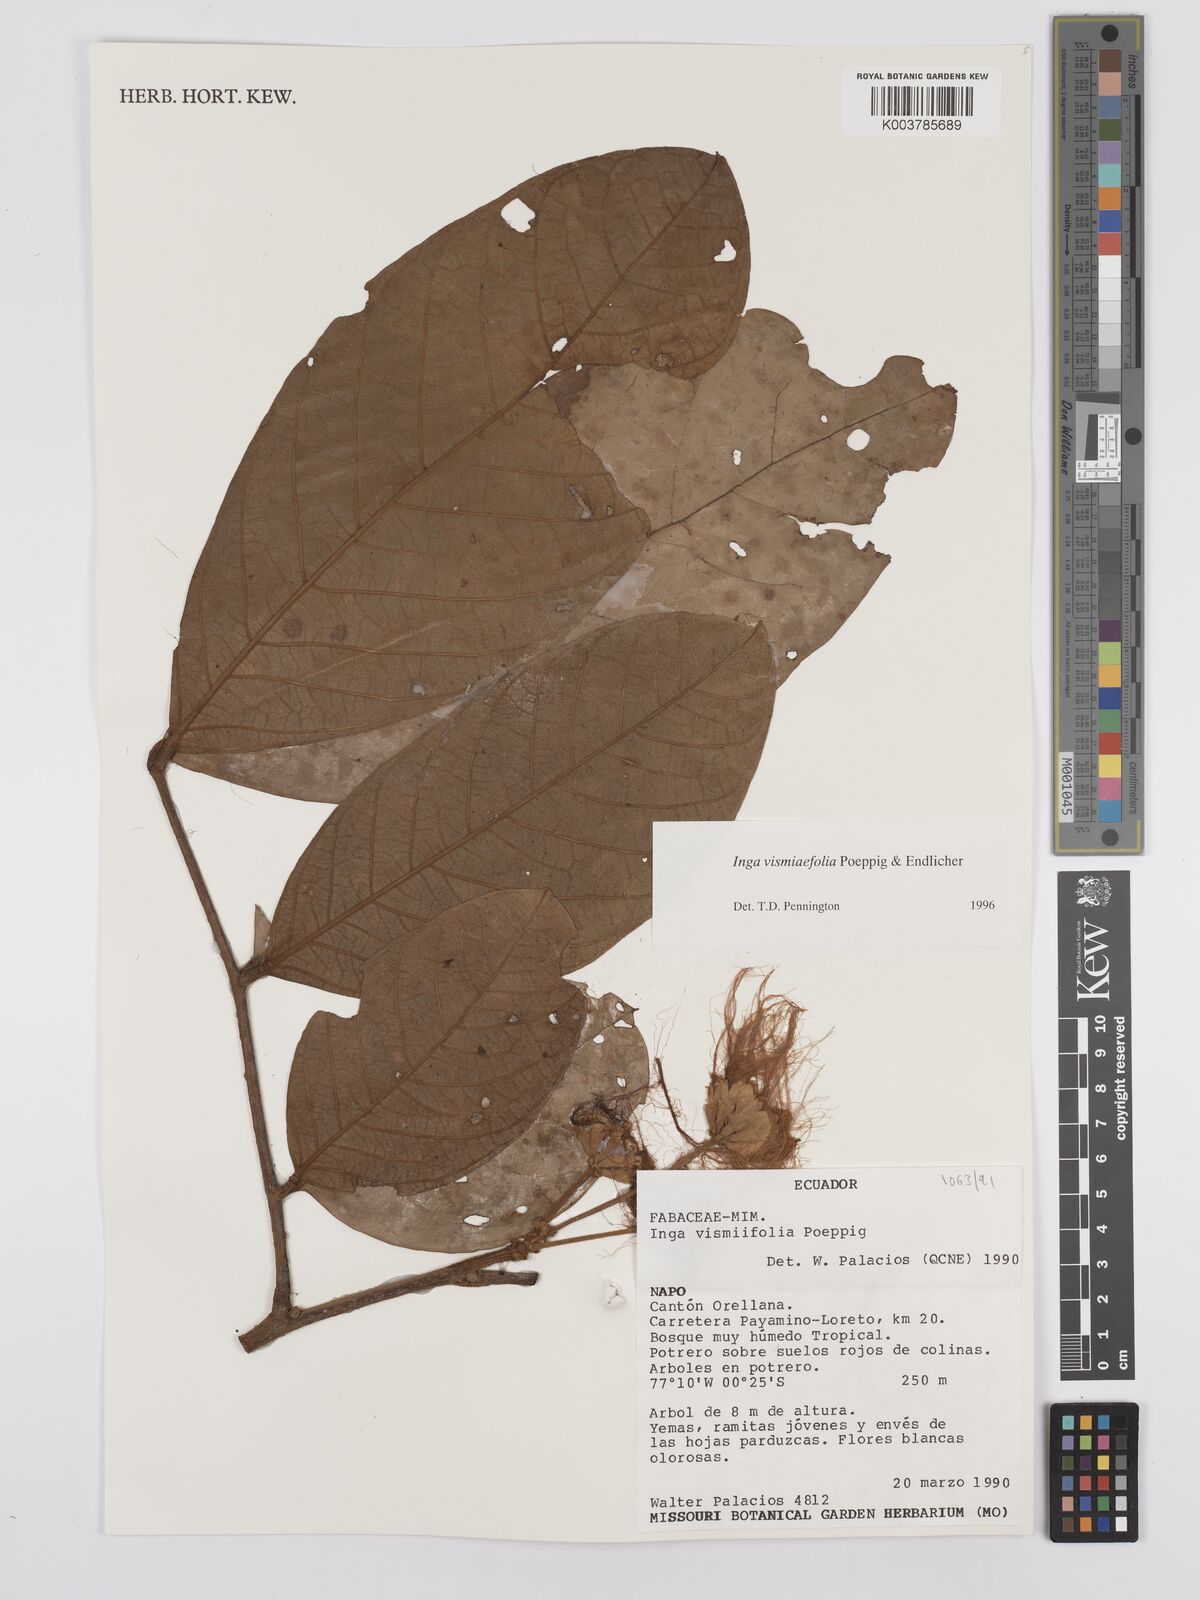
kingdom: Plantae
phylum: Tracheophyta
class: Magnoliopsida
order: Fabales
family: Fabaceae
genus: Inga
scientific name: Inga vismiifolia
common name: Howler monkey inga
